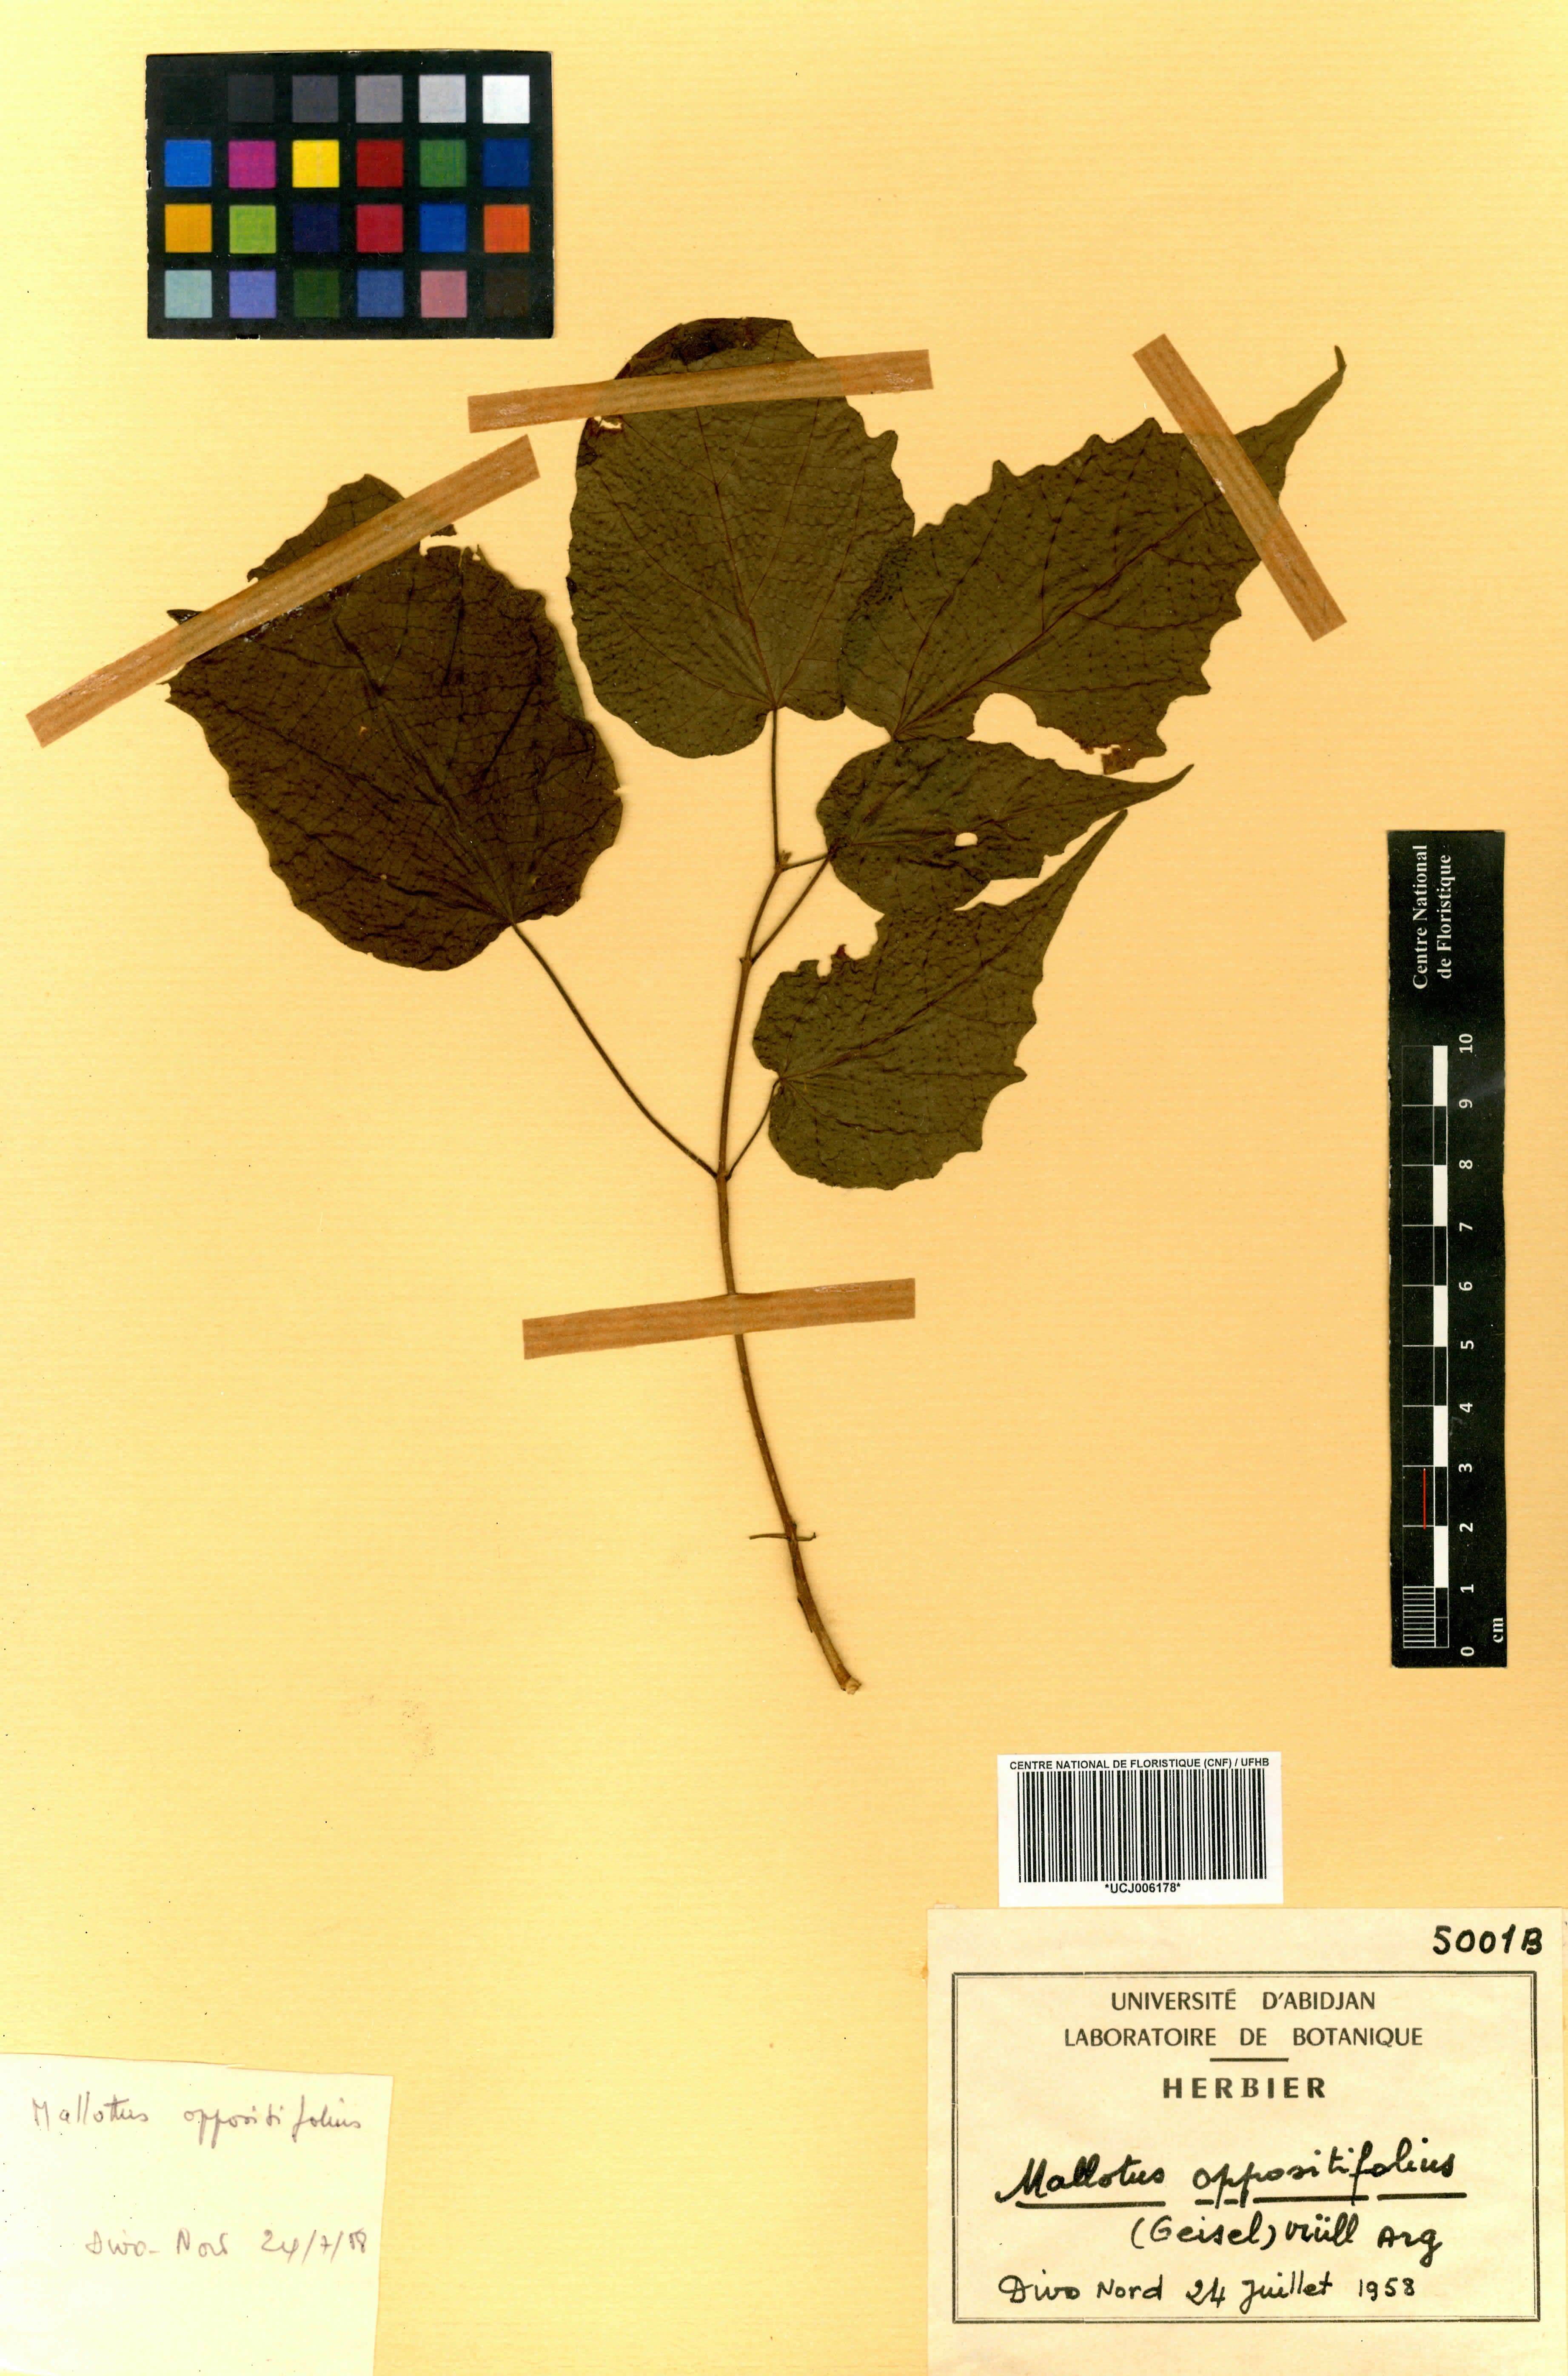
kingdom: Plantae
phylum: Tracheophyta
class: Magnoliopsida
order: Malpighiales
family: Euphorbiaceae
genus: Mallotus
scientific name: Mallotus oppositifolius
